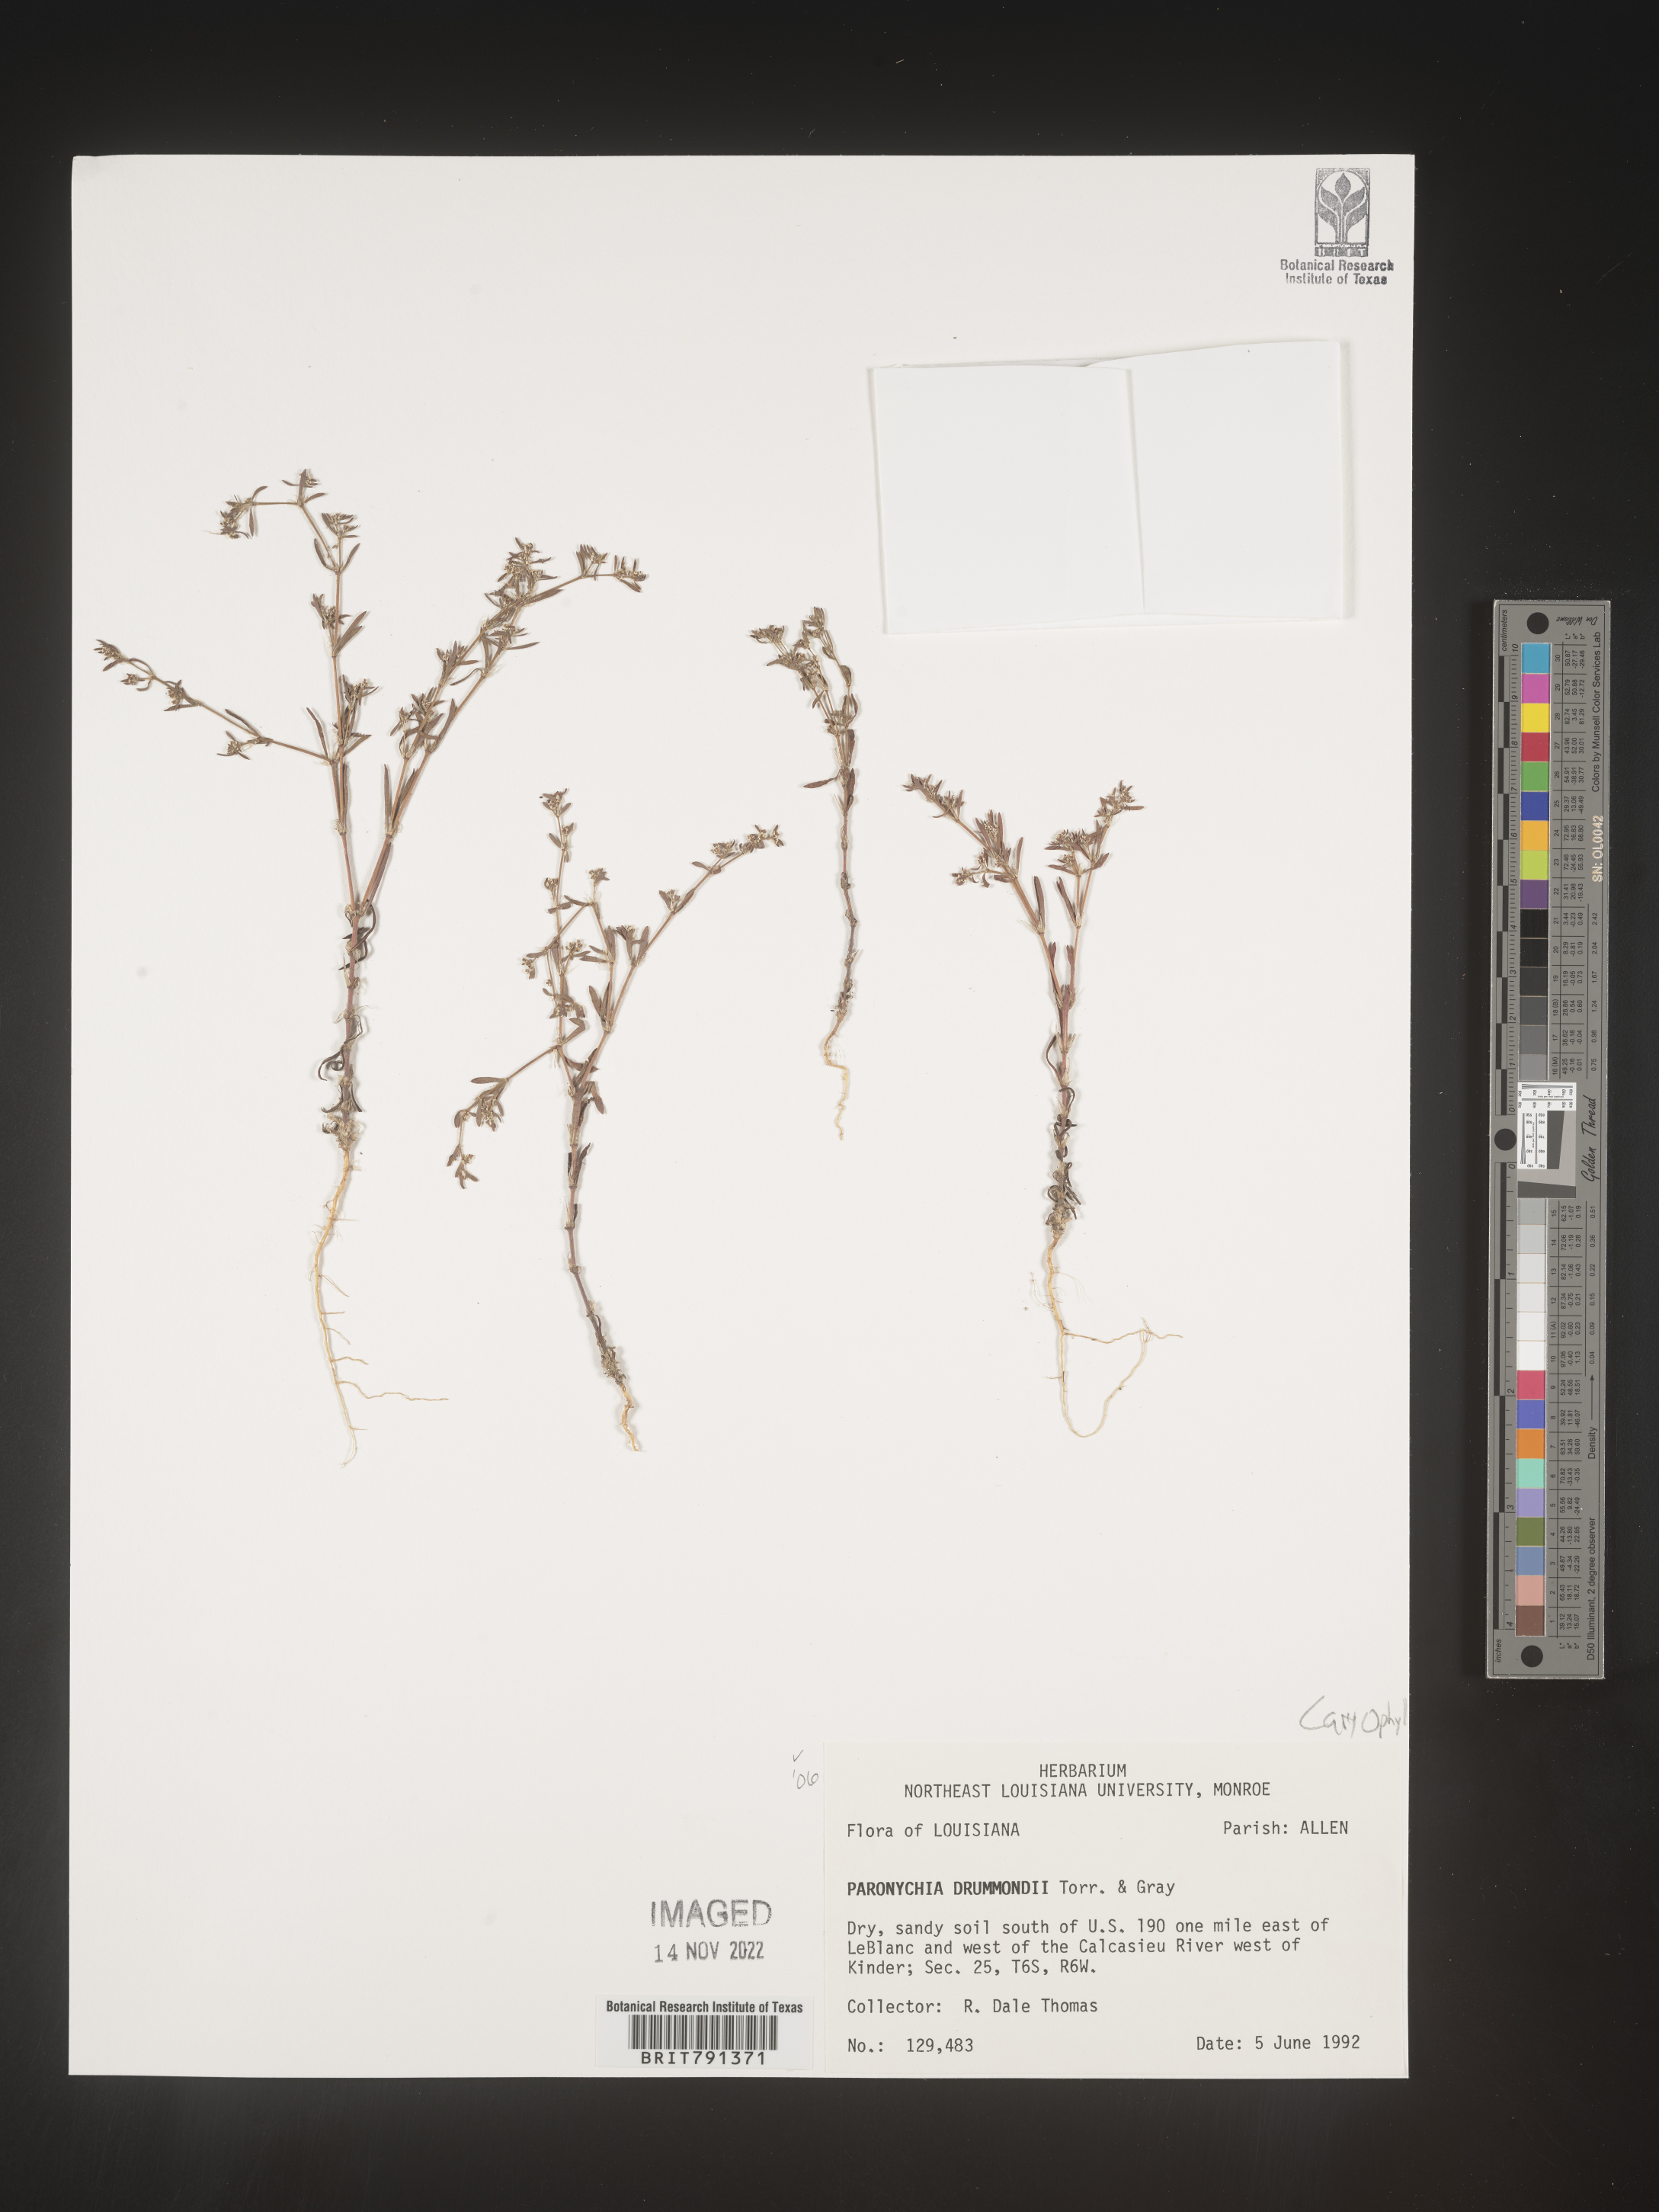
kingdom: Plantae
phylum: Tracheophyta
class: Magnoliopsida
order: Caryophyllales
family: Caryophyllaceae
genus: Paronychia
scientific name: Paronychia drummondii
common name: Drummond's nailwort
